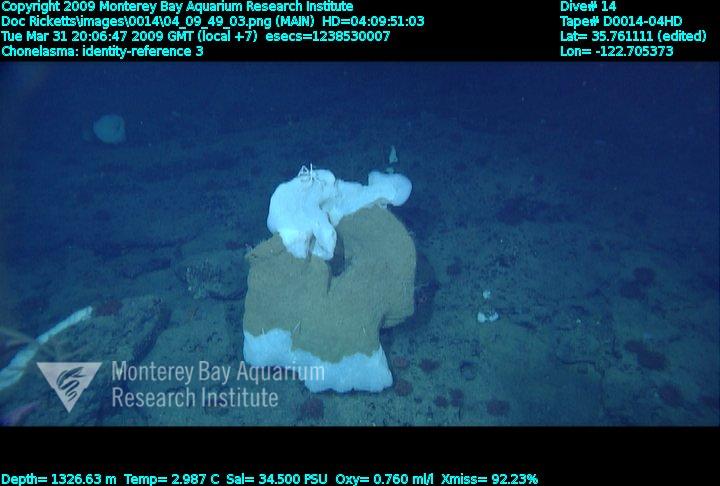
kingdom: Animalia
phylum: Porifera
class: Hexactinellida
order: Sceptrulophora
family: Euretidae
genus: Chonelasma
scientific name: Chonelasma
